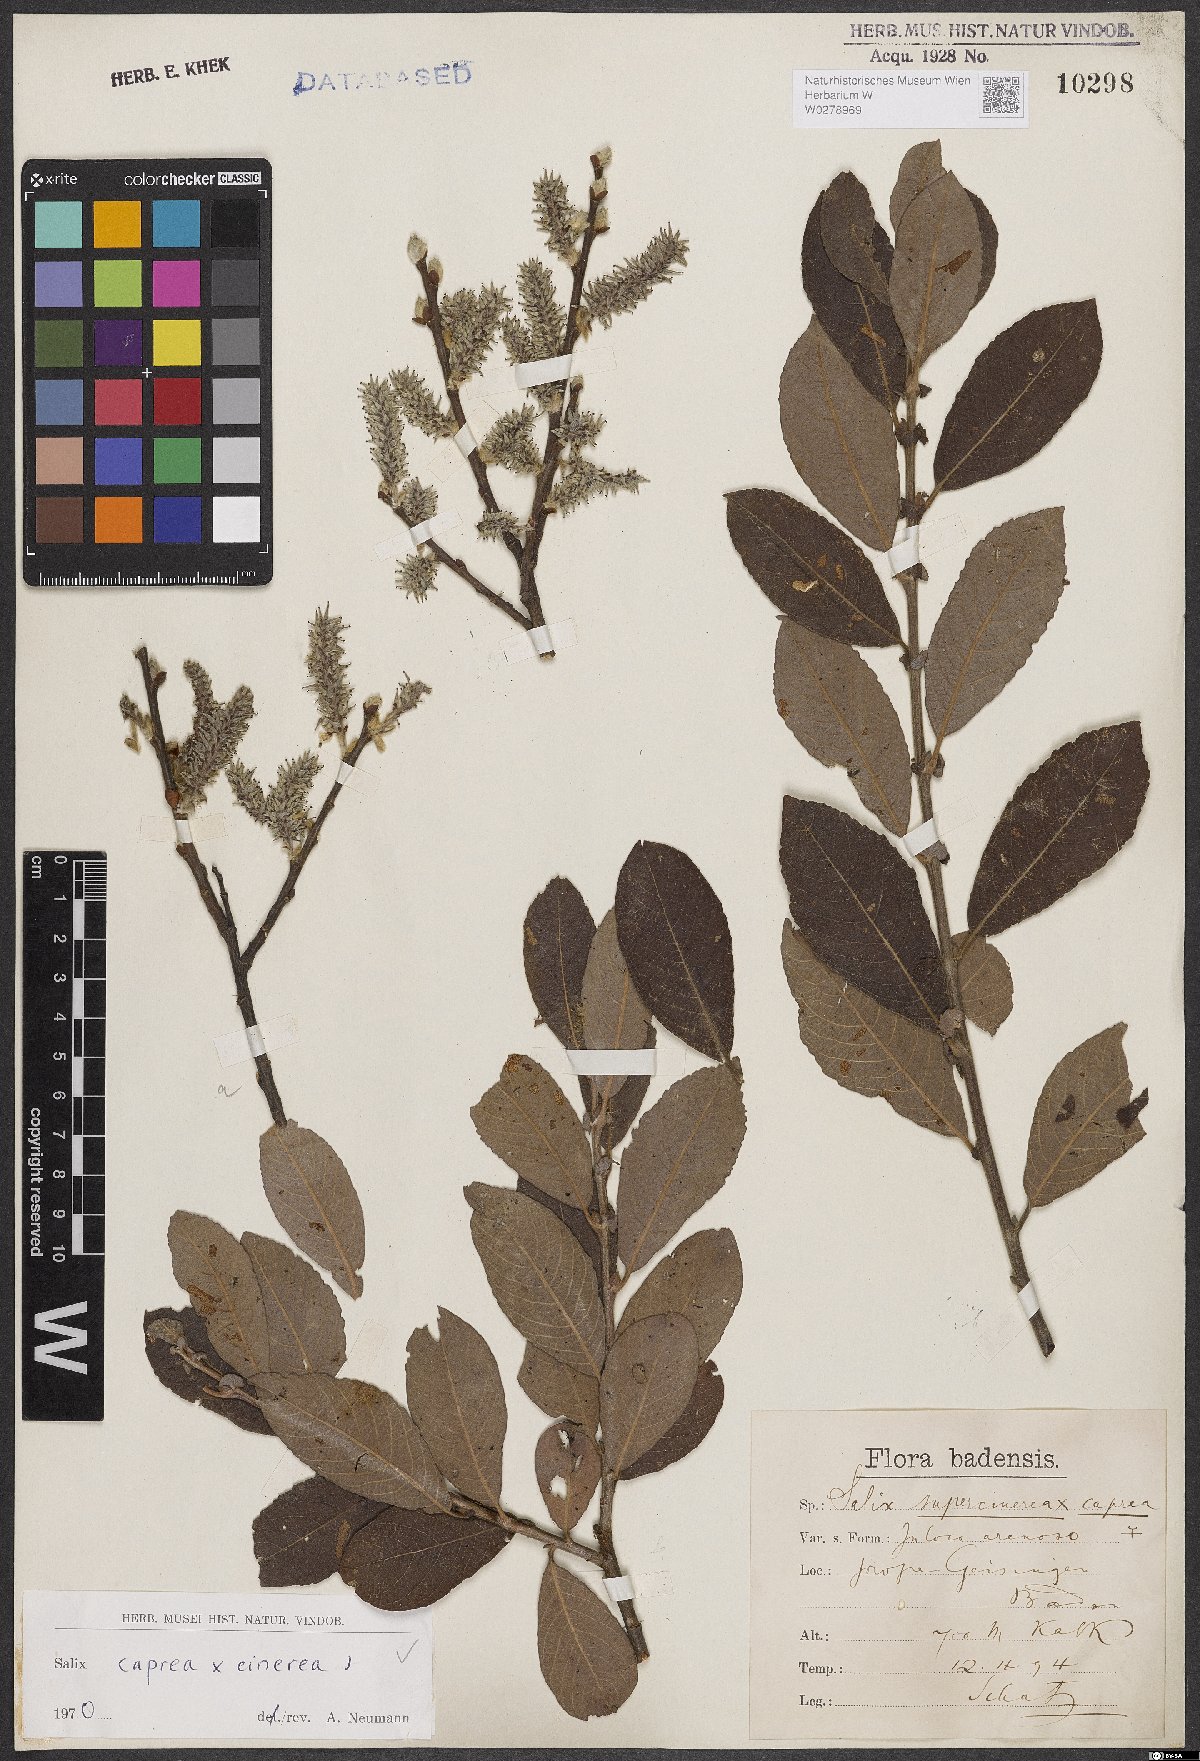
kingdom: Plantae
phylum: Tracheophyta
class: Magnoliopsida
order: Malpighiales
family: Salicaceae
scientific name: Salicaceae
